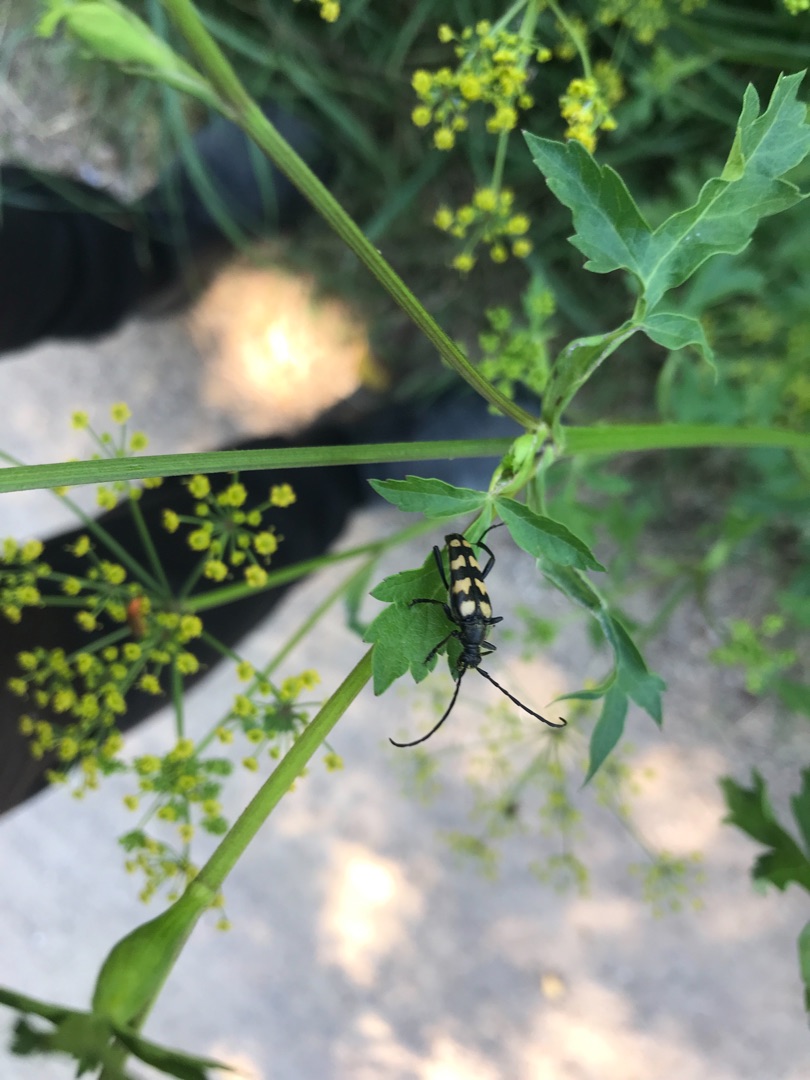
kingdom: Animalia
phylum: Arthropoda
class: Insecta
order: Coleoptera
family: Cerambycidae
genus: Leptura
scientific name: Leptura quadrifasciata
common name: Firebåndet blomsterbuk
